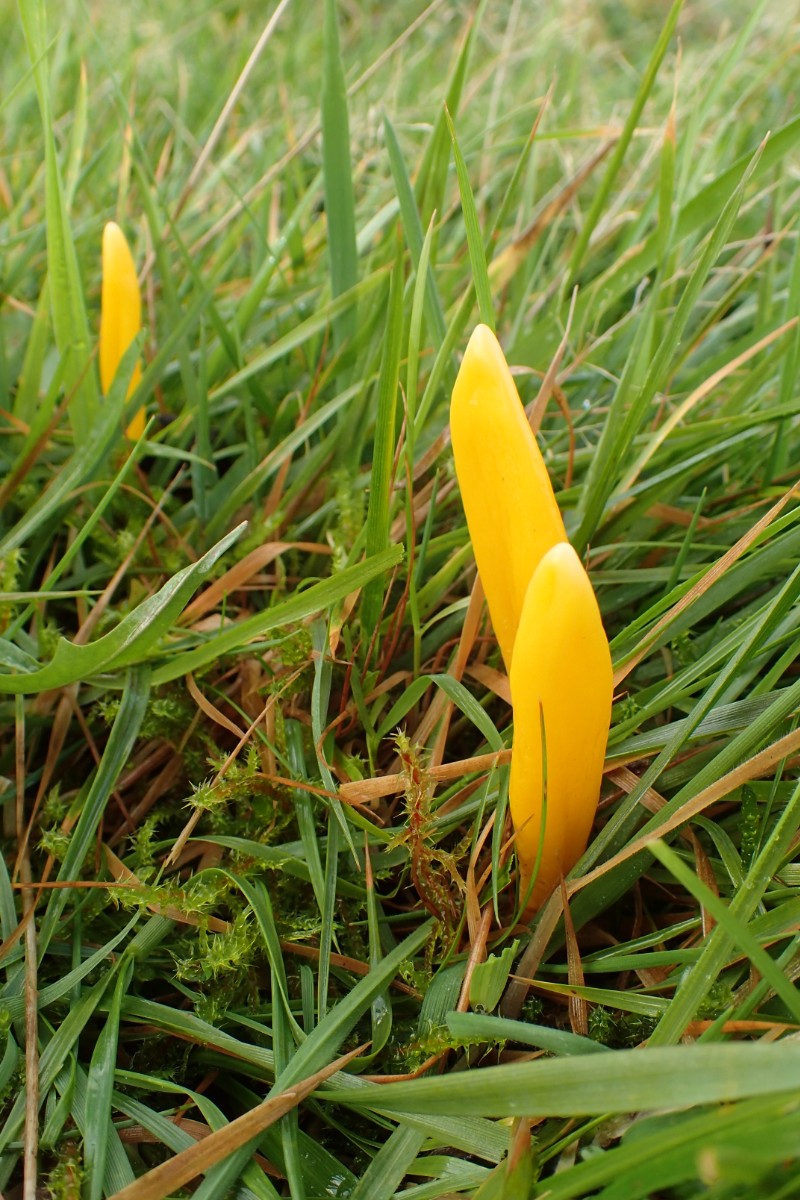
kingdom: Fungi
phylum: Basidiomycota
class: Agaricomycetes
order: Agaricales
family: Clavariaceae
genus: Clavulinopsis
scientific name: Clavulinopsis helvola
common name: orangegul køllesvamp
